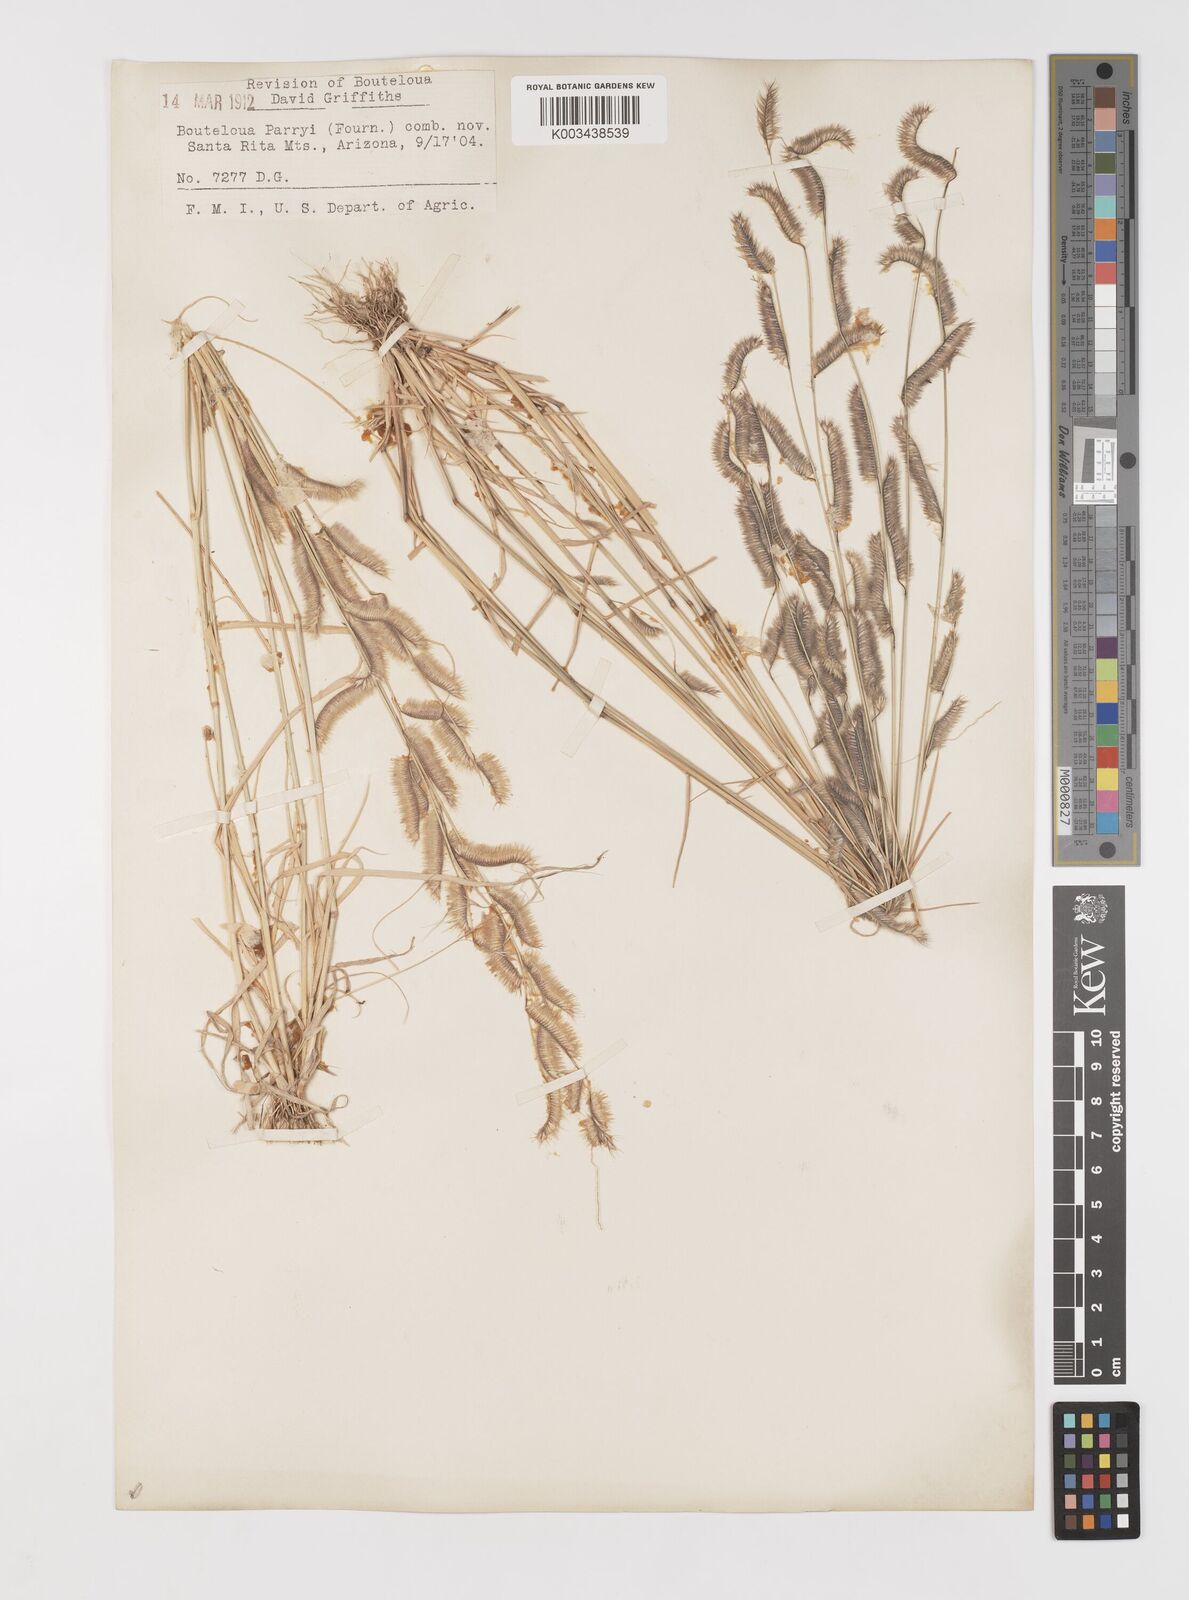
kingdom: Plantae
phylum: Tracheophyta
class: Liliopsida
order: Poales
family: Poaceae
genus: Bouteloua
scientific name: Bouteloua parryi
